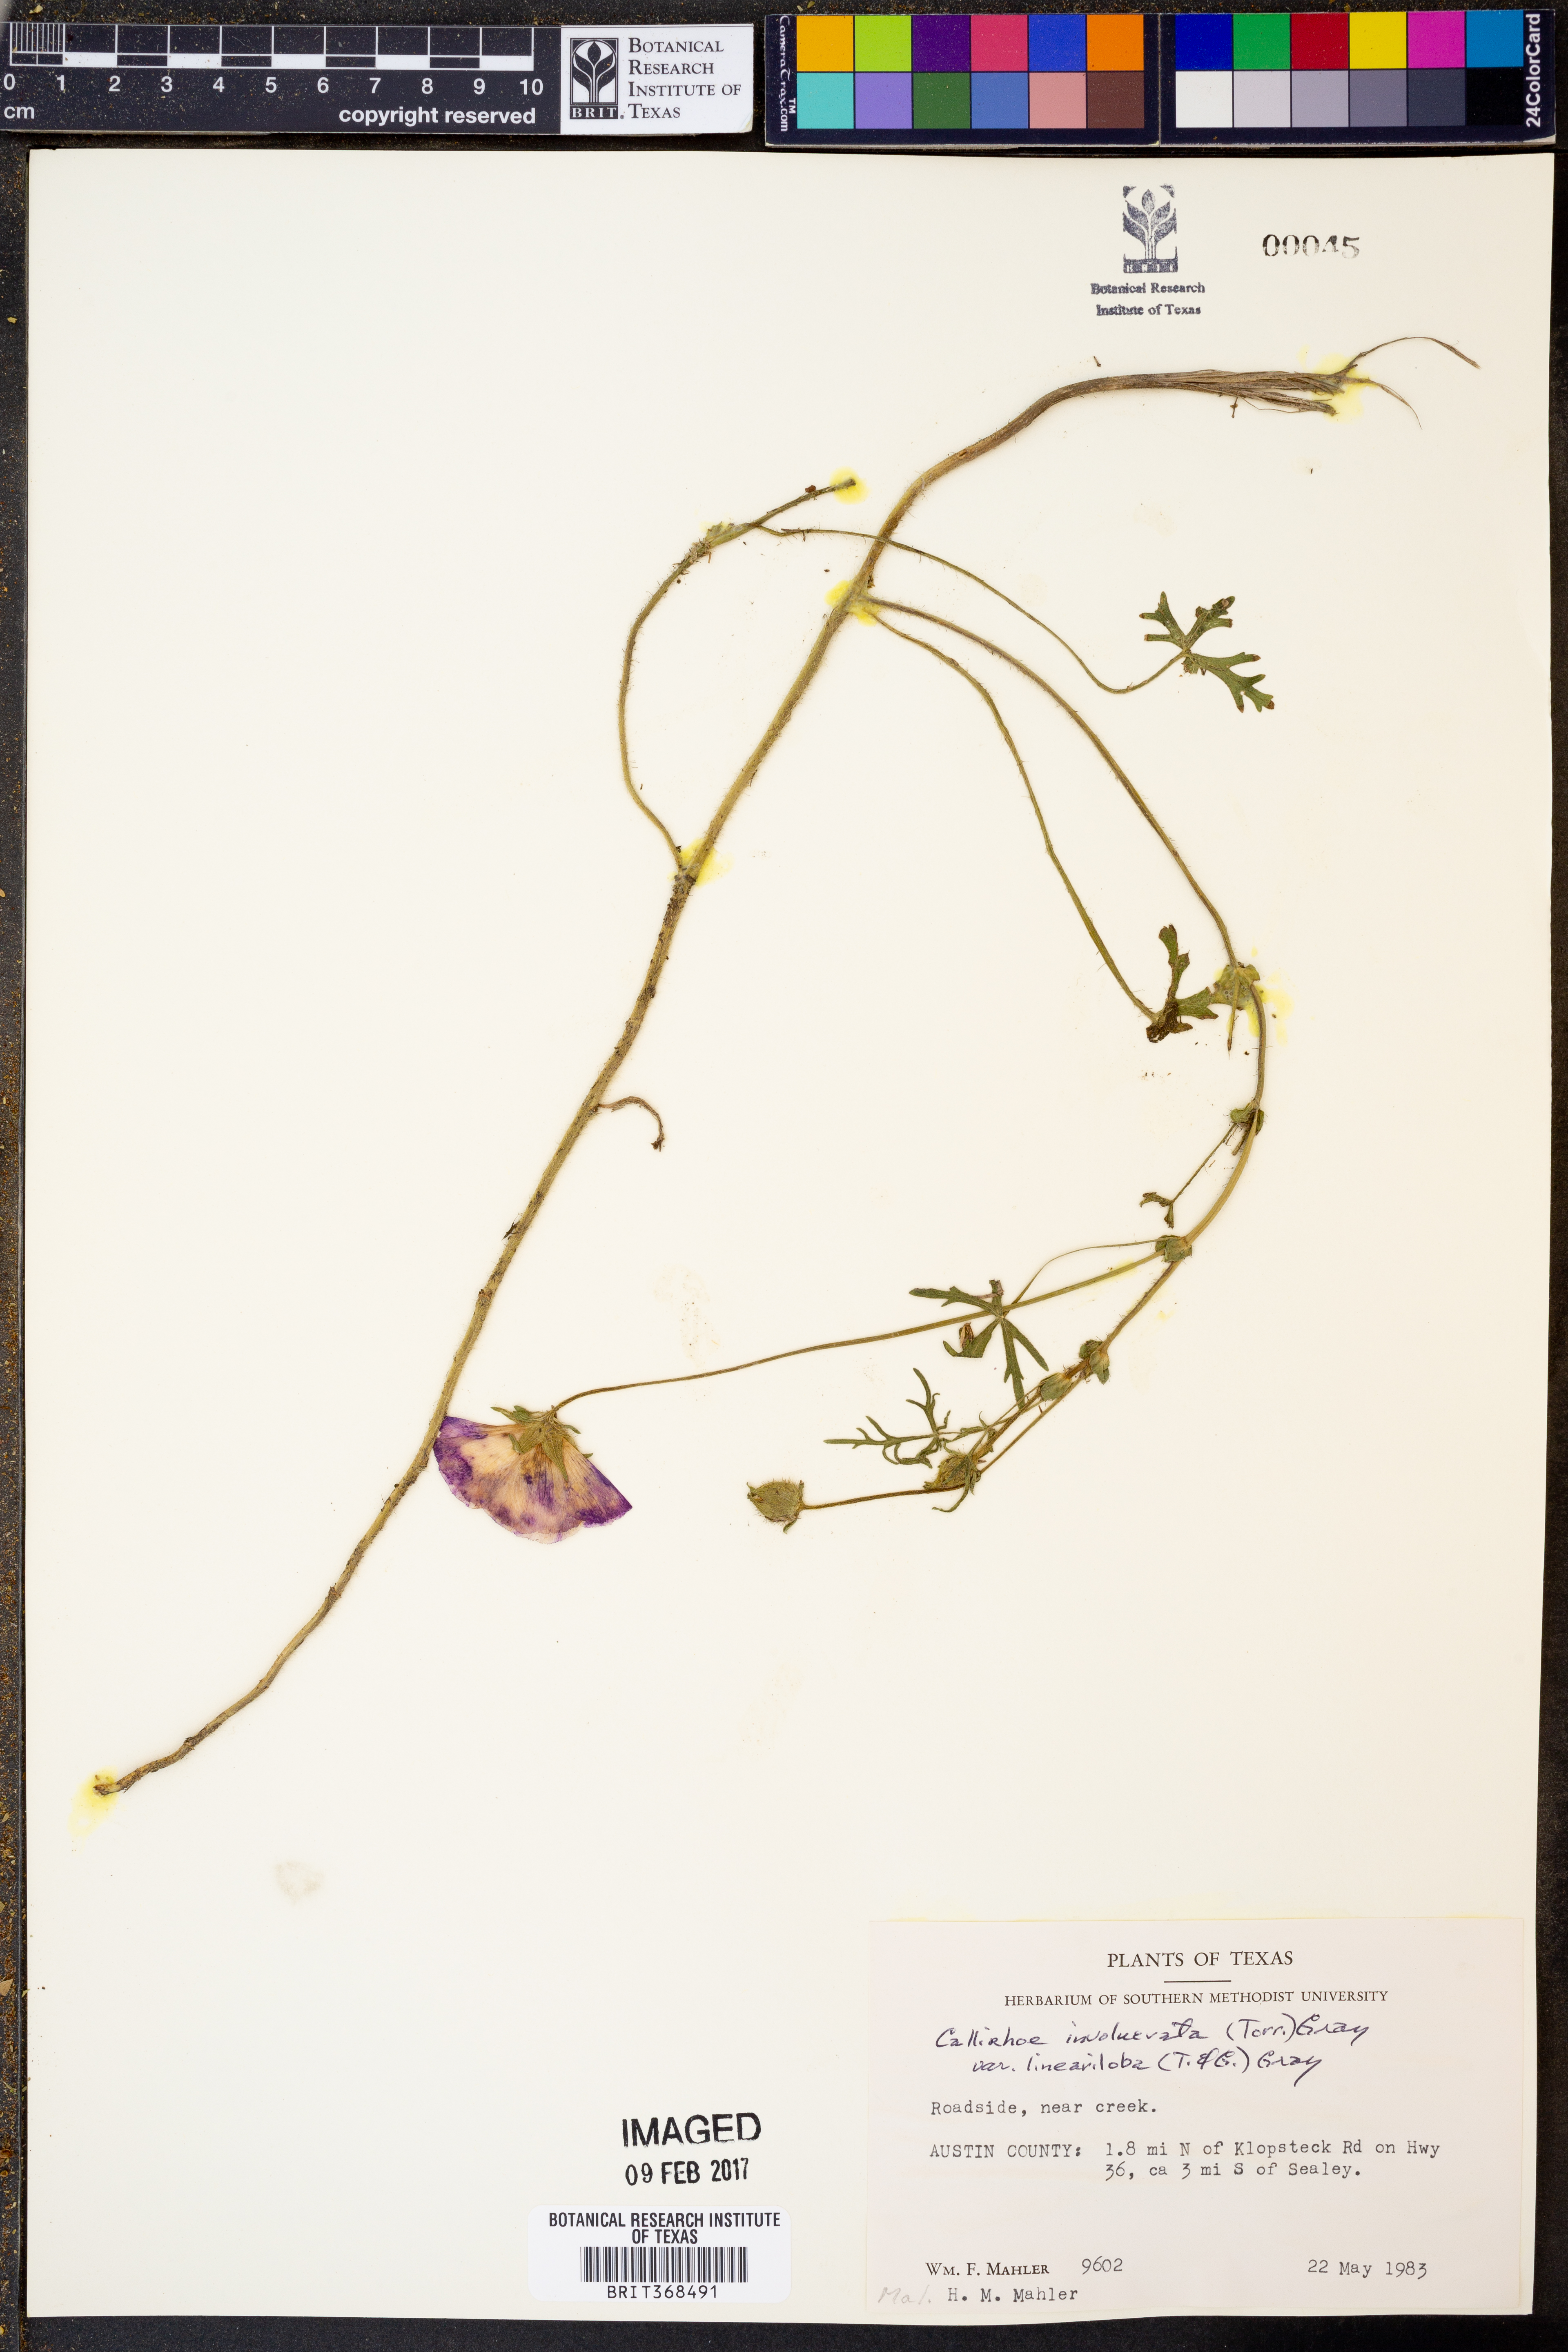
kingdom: Plantae
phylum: Tracheophyta
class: Magnoliopsida
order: Malvales
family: Malvaceae
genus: Callirhoe
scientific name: Callirhoe involucrata
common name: Purple poppy-mallow
